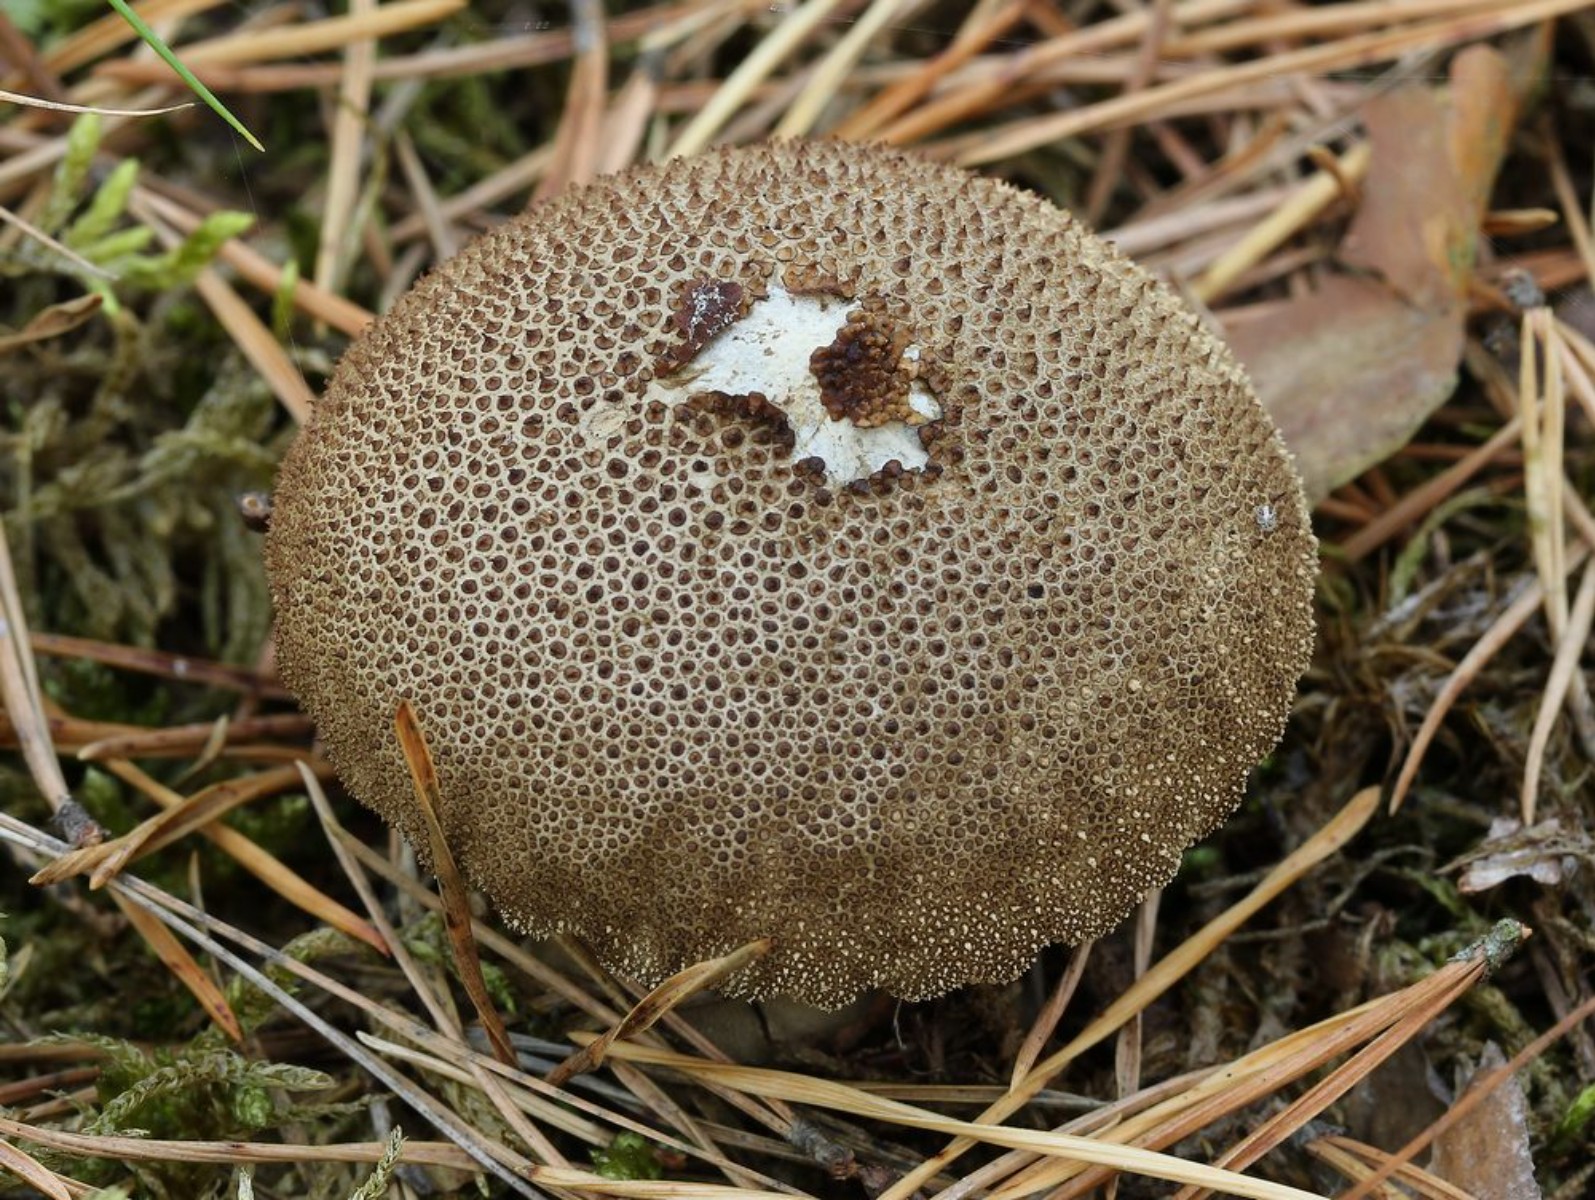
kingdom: Fungi
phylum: Basidiomycota
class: Agaricomycetes
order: Agaricales
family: Lycoperdaceae
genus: Lycoperdon
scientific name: Lycoperdon nigrescens
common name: sortagtig støvbold
